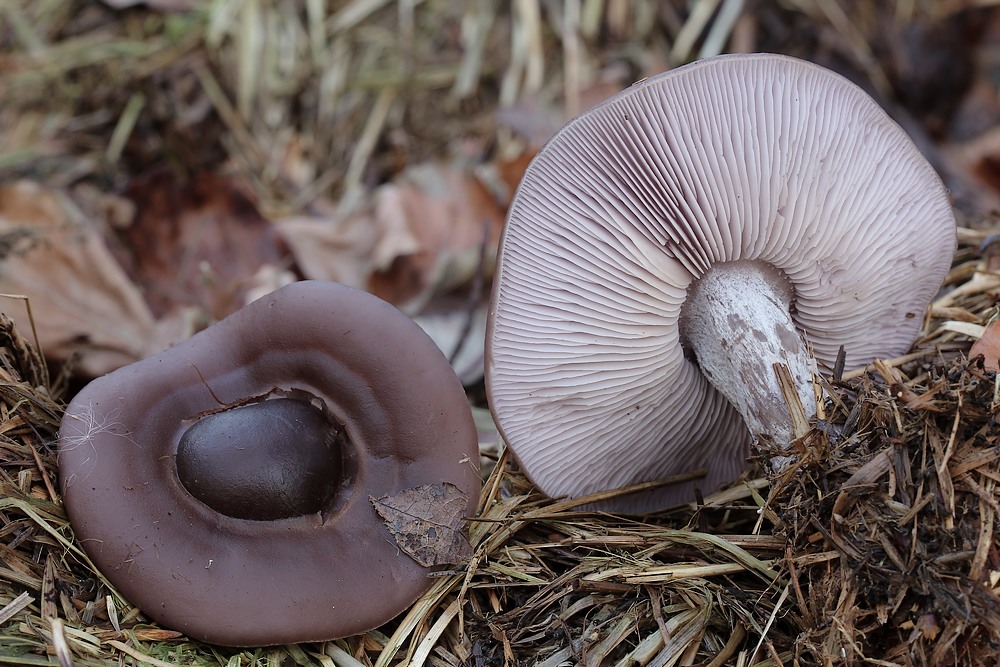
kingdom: Fungi
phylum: Basidiomycota
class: Agaricomycetes
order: Agaricales
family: Tricholomataceae
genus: Lepista
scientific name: Lepista nuda
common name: violet hekseringshat
